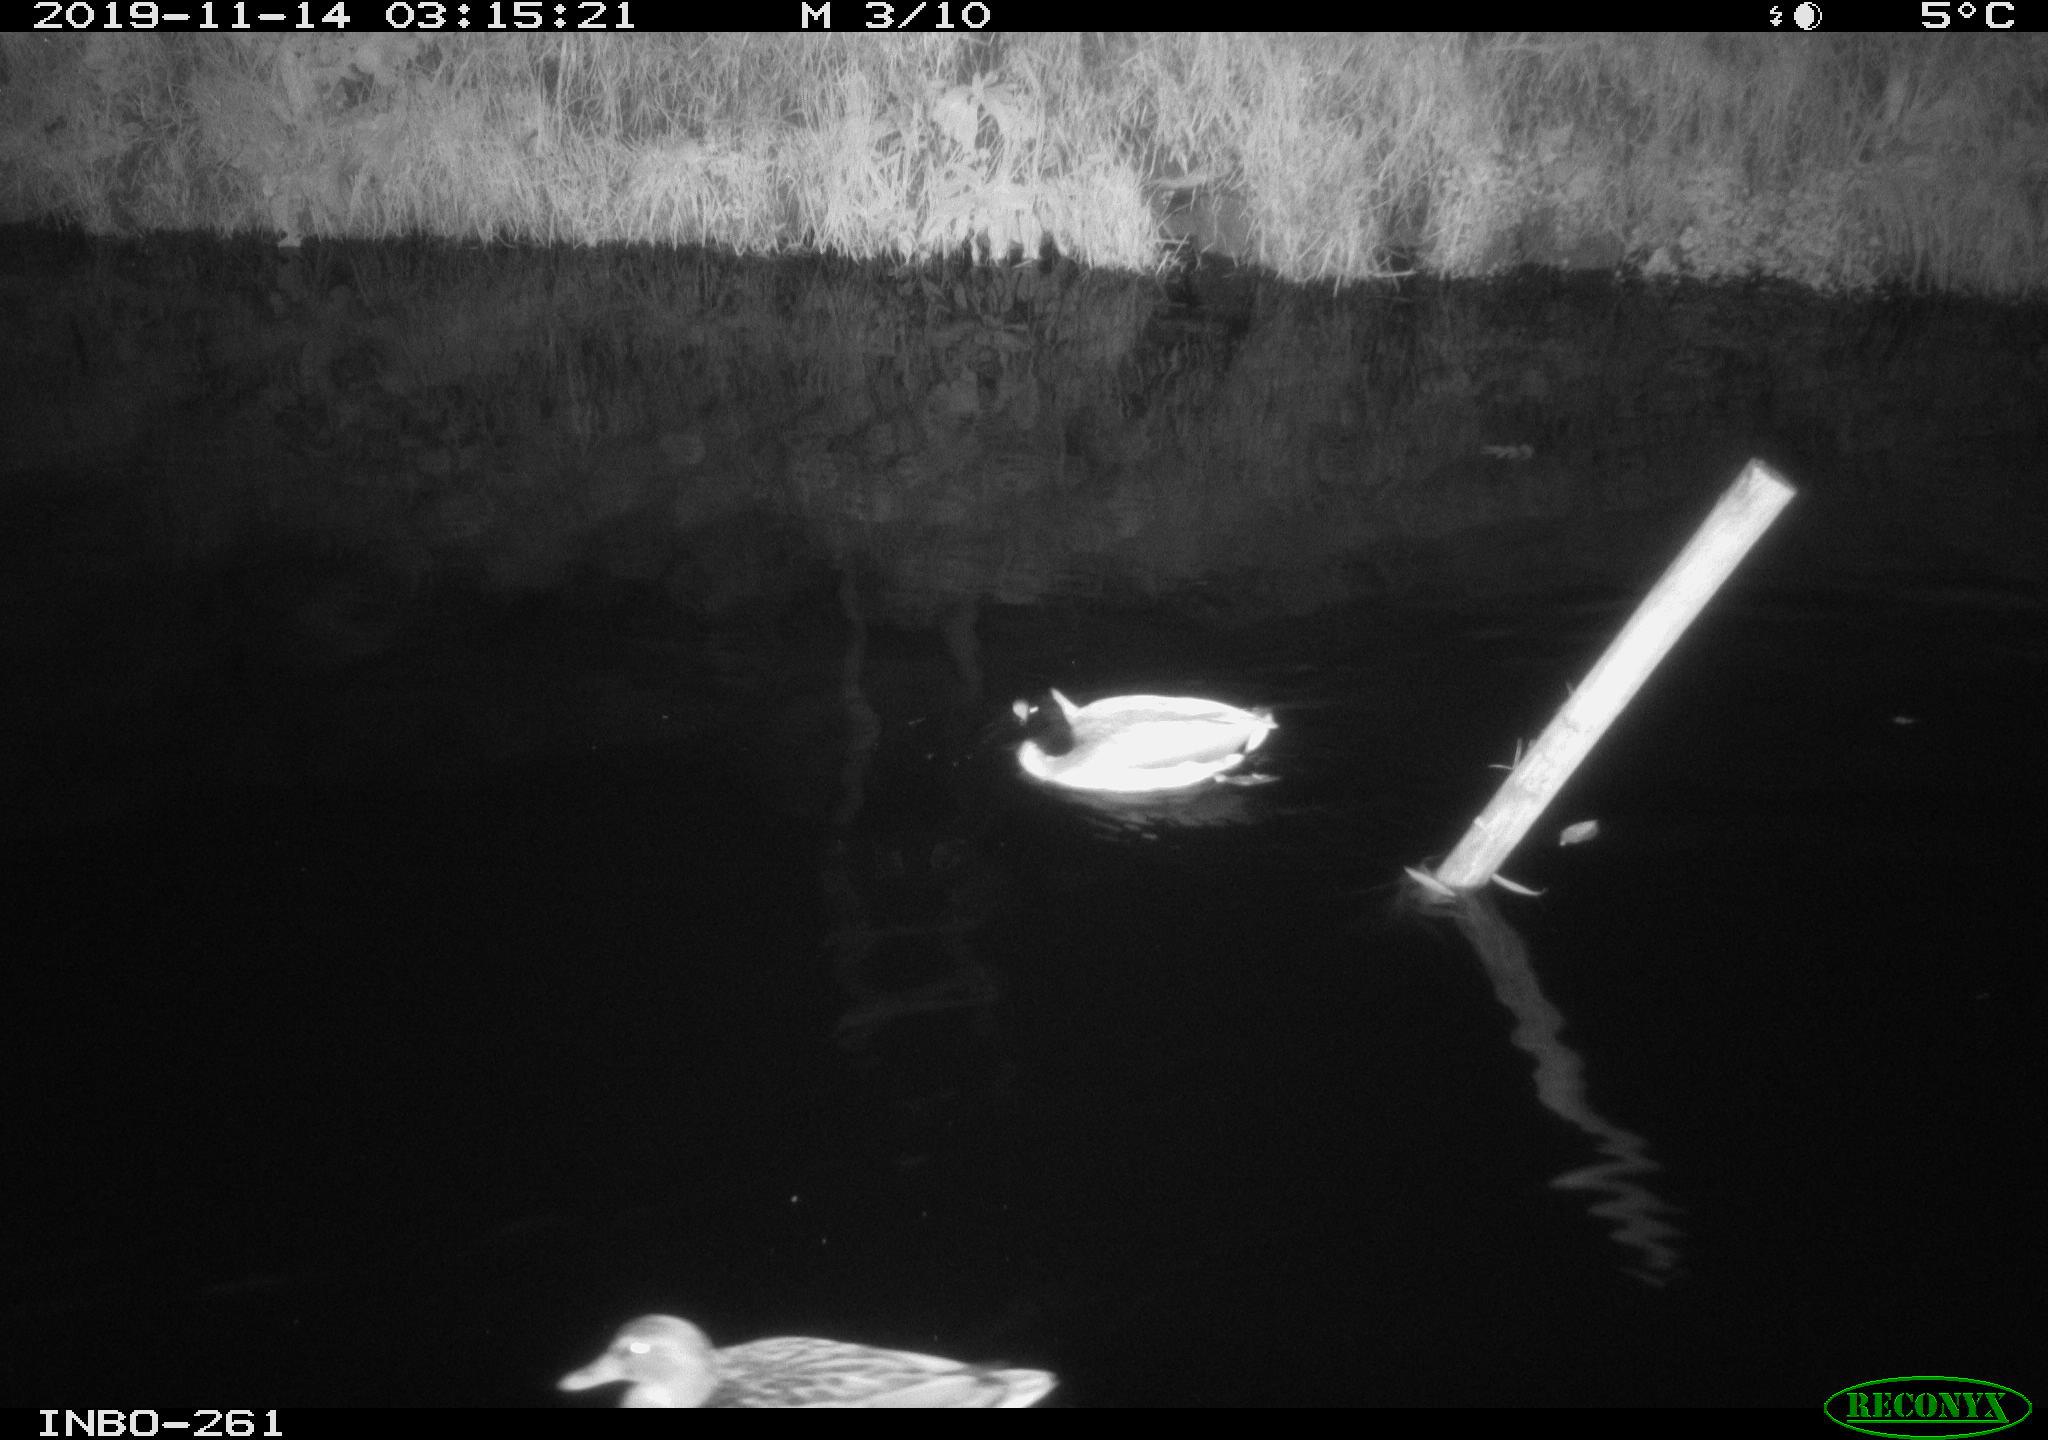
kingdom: Animalia
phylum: Chordata
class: Aves
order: Anseriformes
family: Anatidae
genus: Anas
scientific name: Anas platyrhynchos
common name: Mallard
